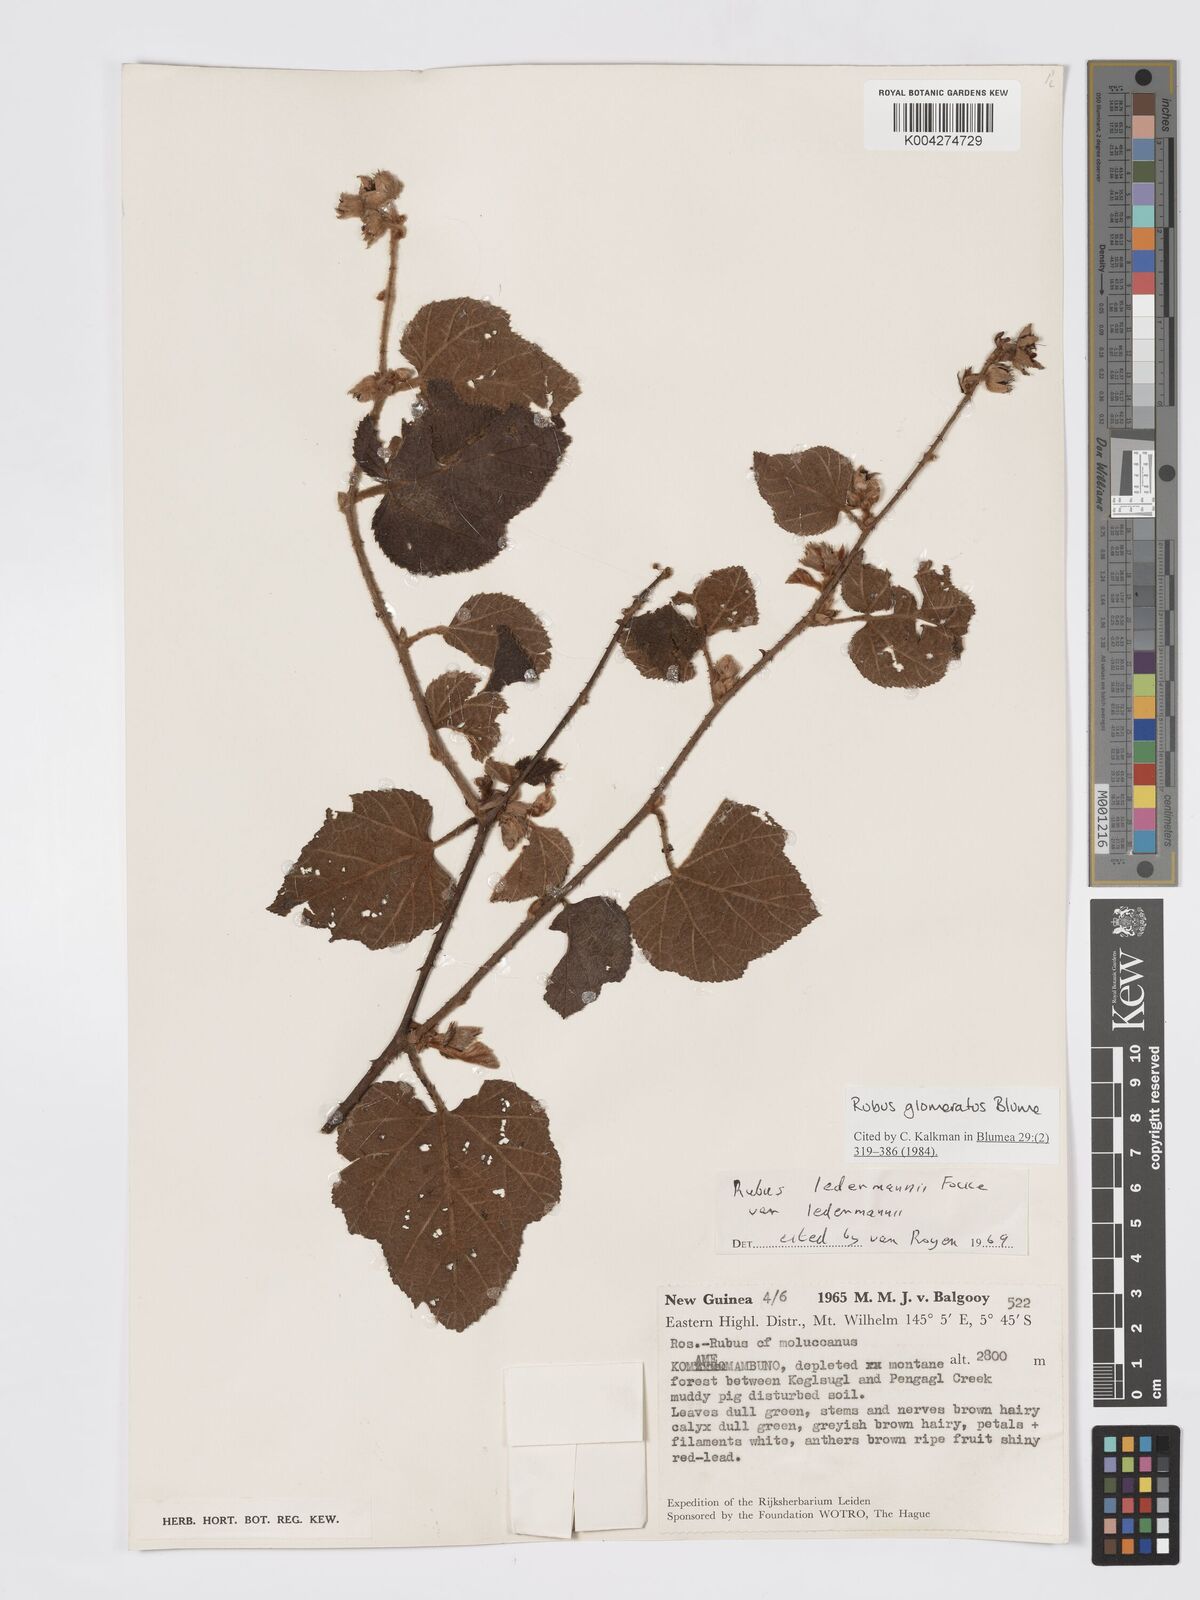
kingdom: Plantae
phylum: Tracheophyta
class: Magnoliopsida
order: Rosales
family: Rosaceae
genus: Rubus
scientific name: Rubus
